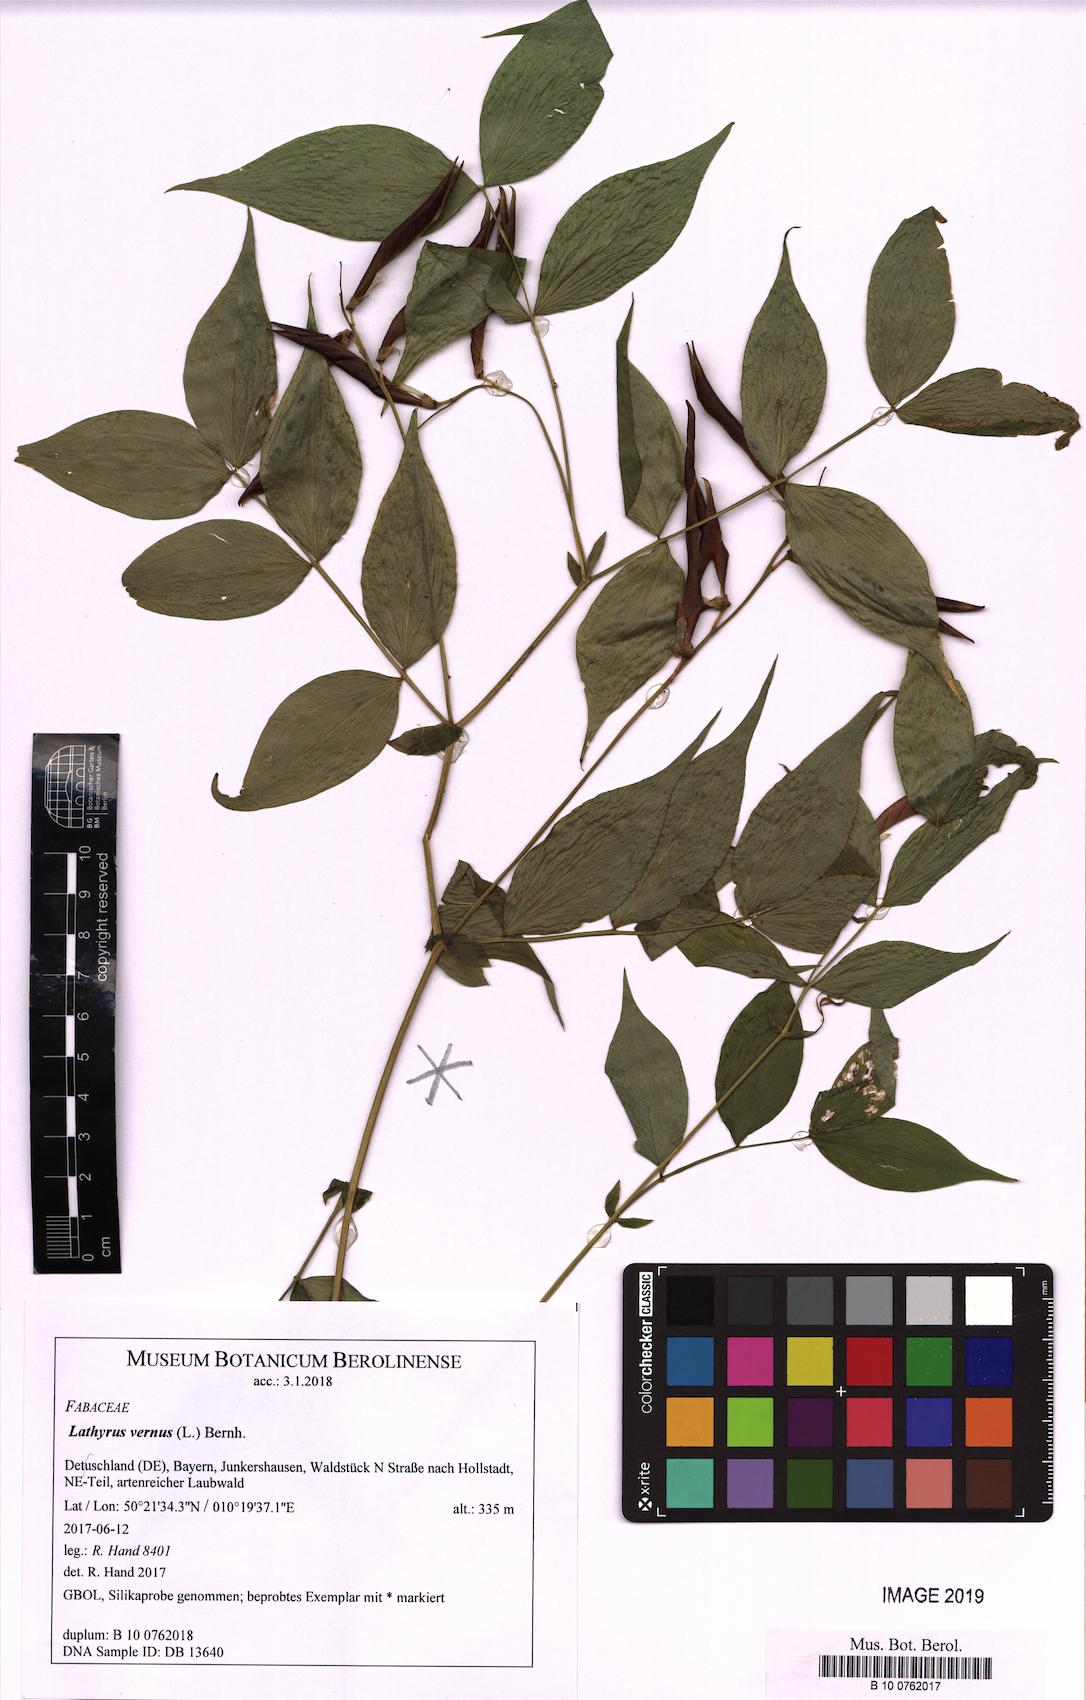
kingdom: Plantae
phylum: Tracheophyta
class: Magnoliopsida
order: Fabales
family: Fabaceae
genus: Lathyrus
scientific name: Lathyrus vernus
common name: Spring pea
